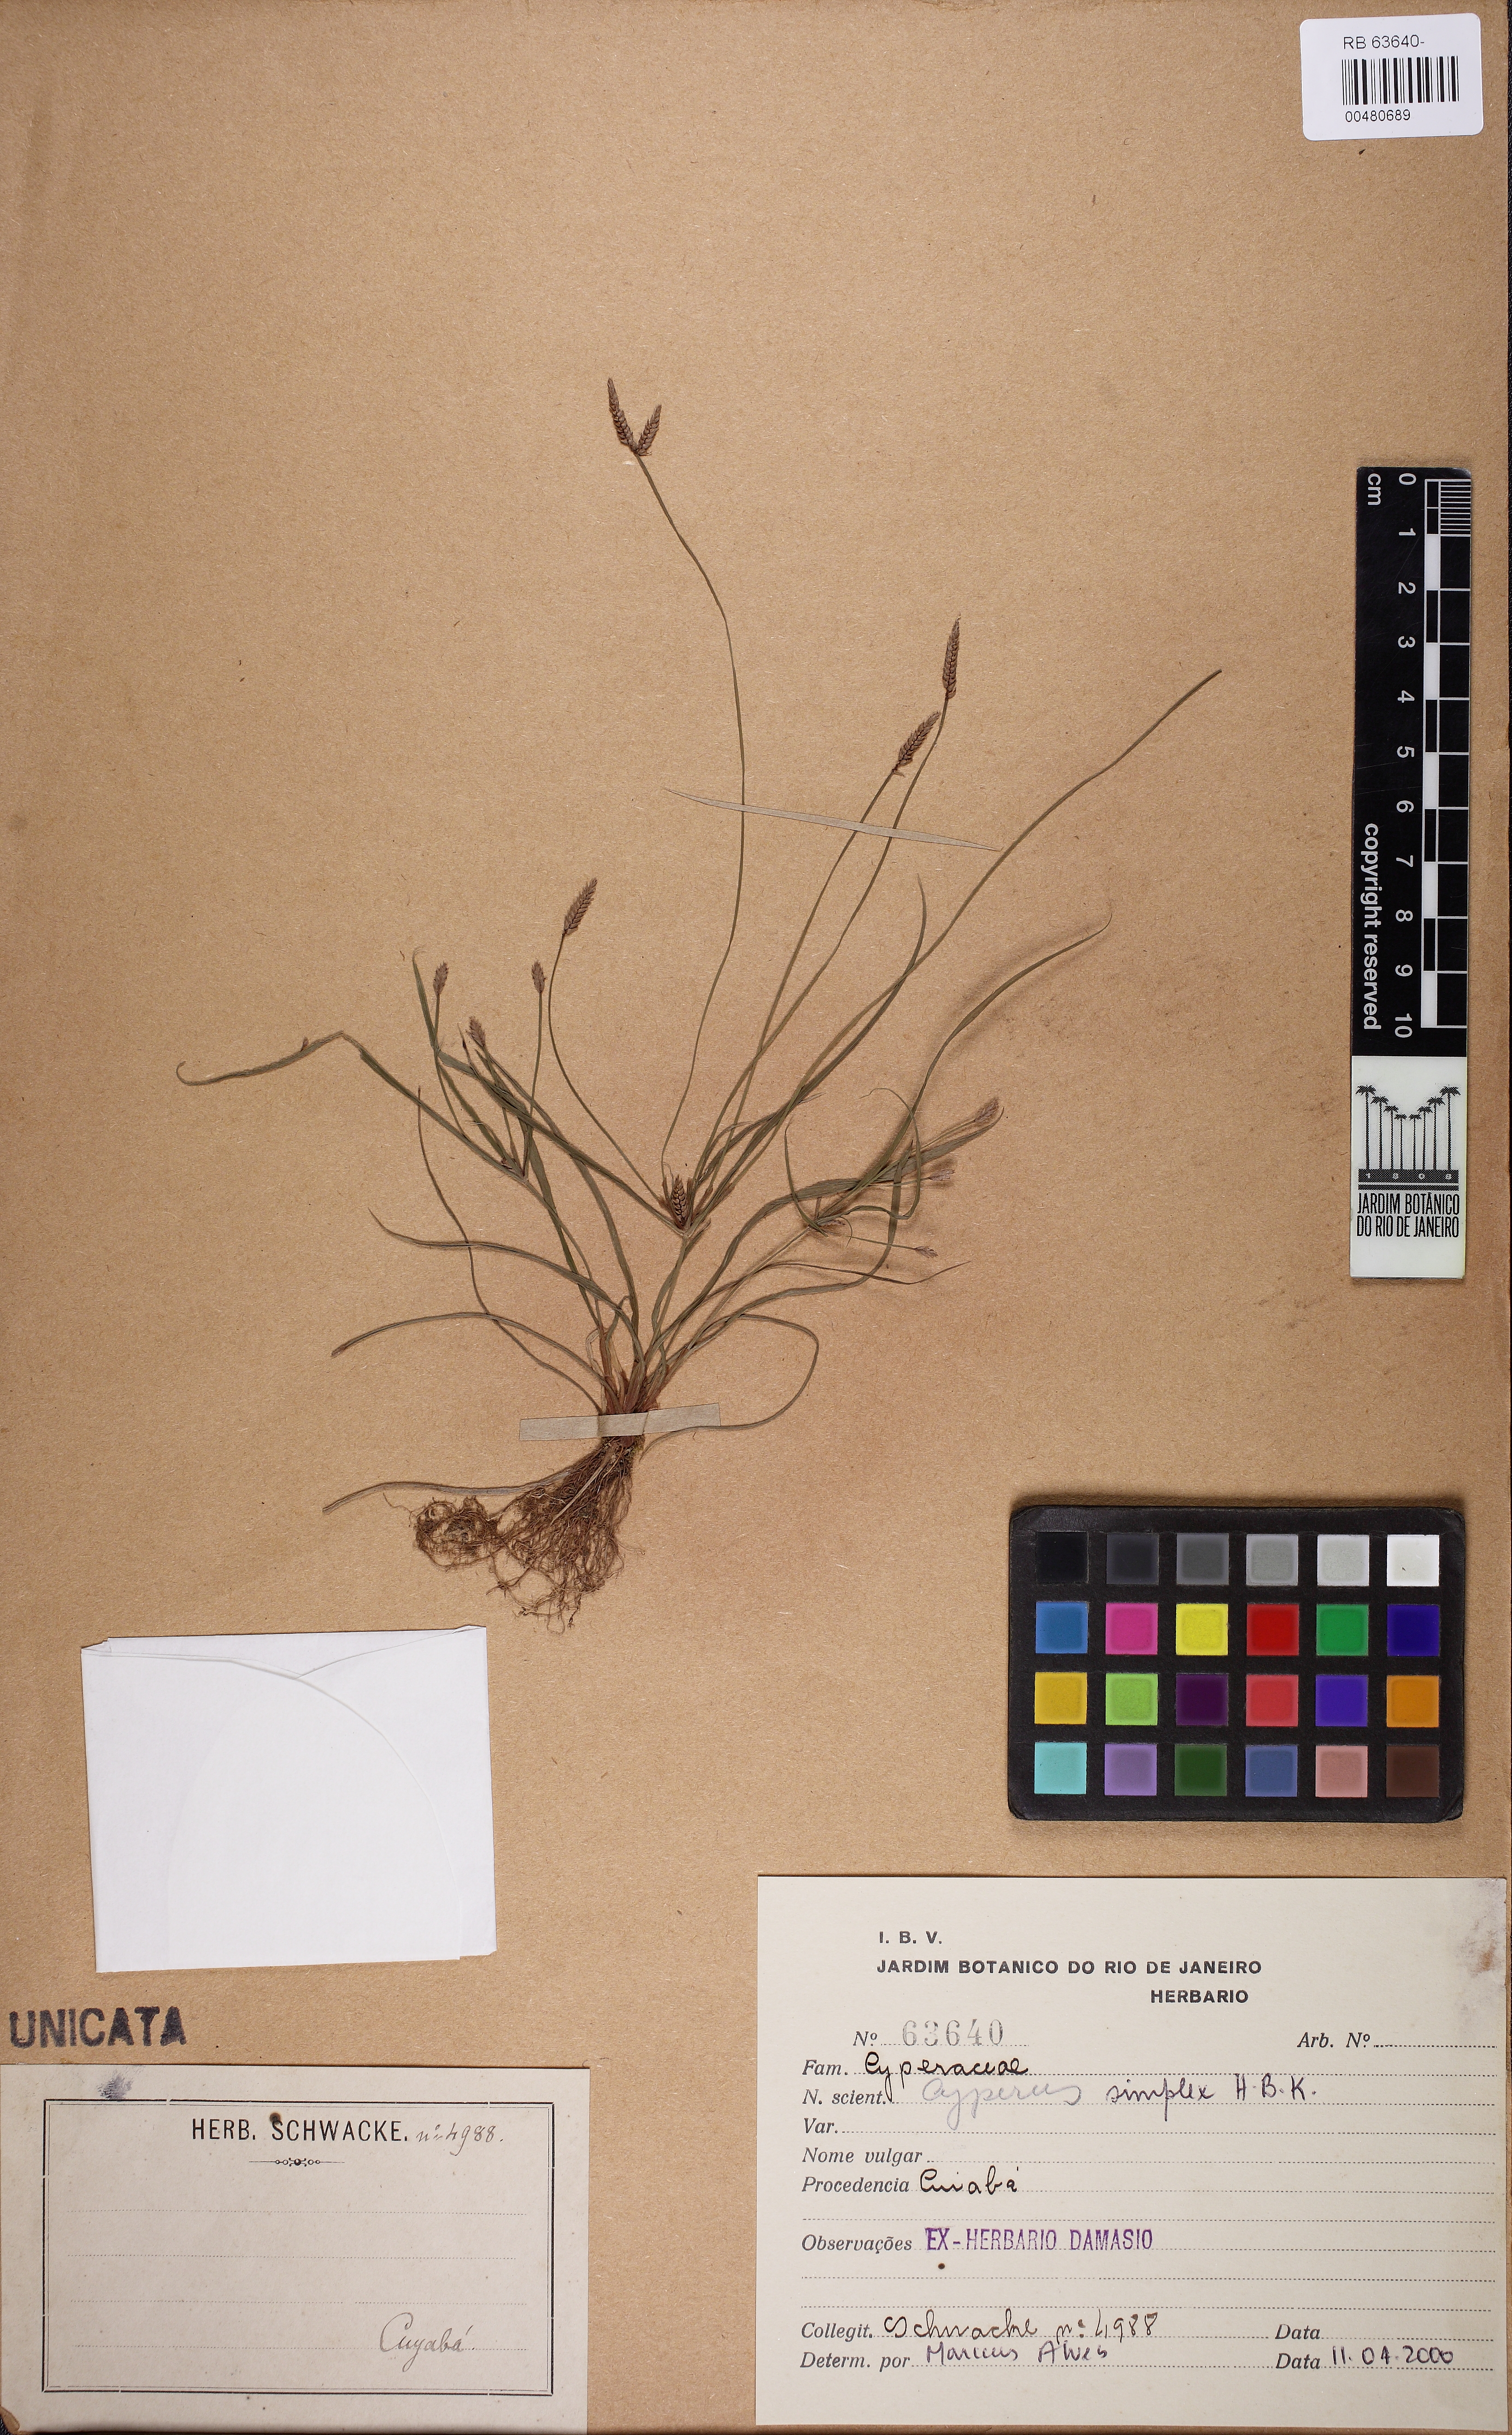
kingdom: Plantae
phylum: Tracheophyta
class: Liliopsida
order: Poales
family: Cyperaceae
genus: Cyperus
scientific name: Cyperus simplex
